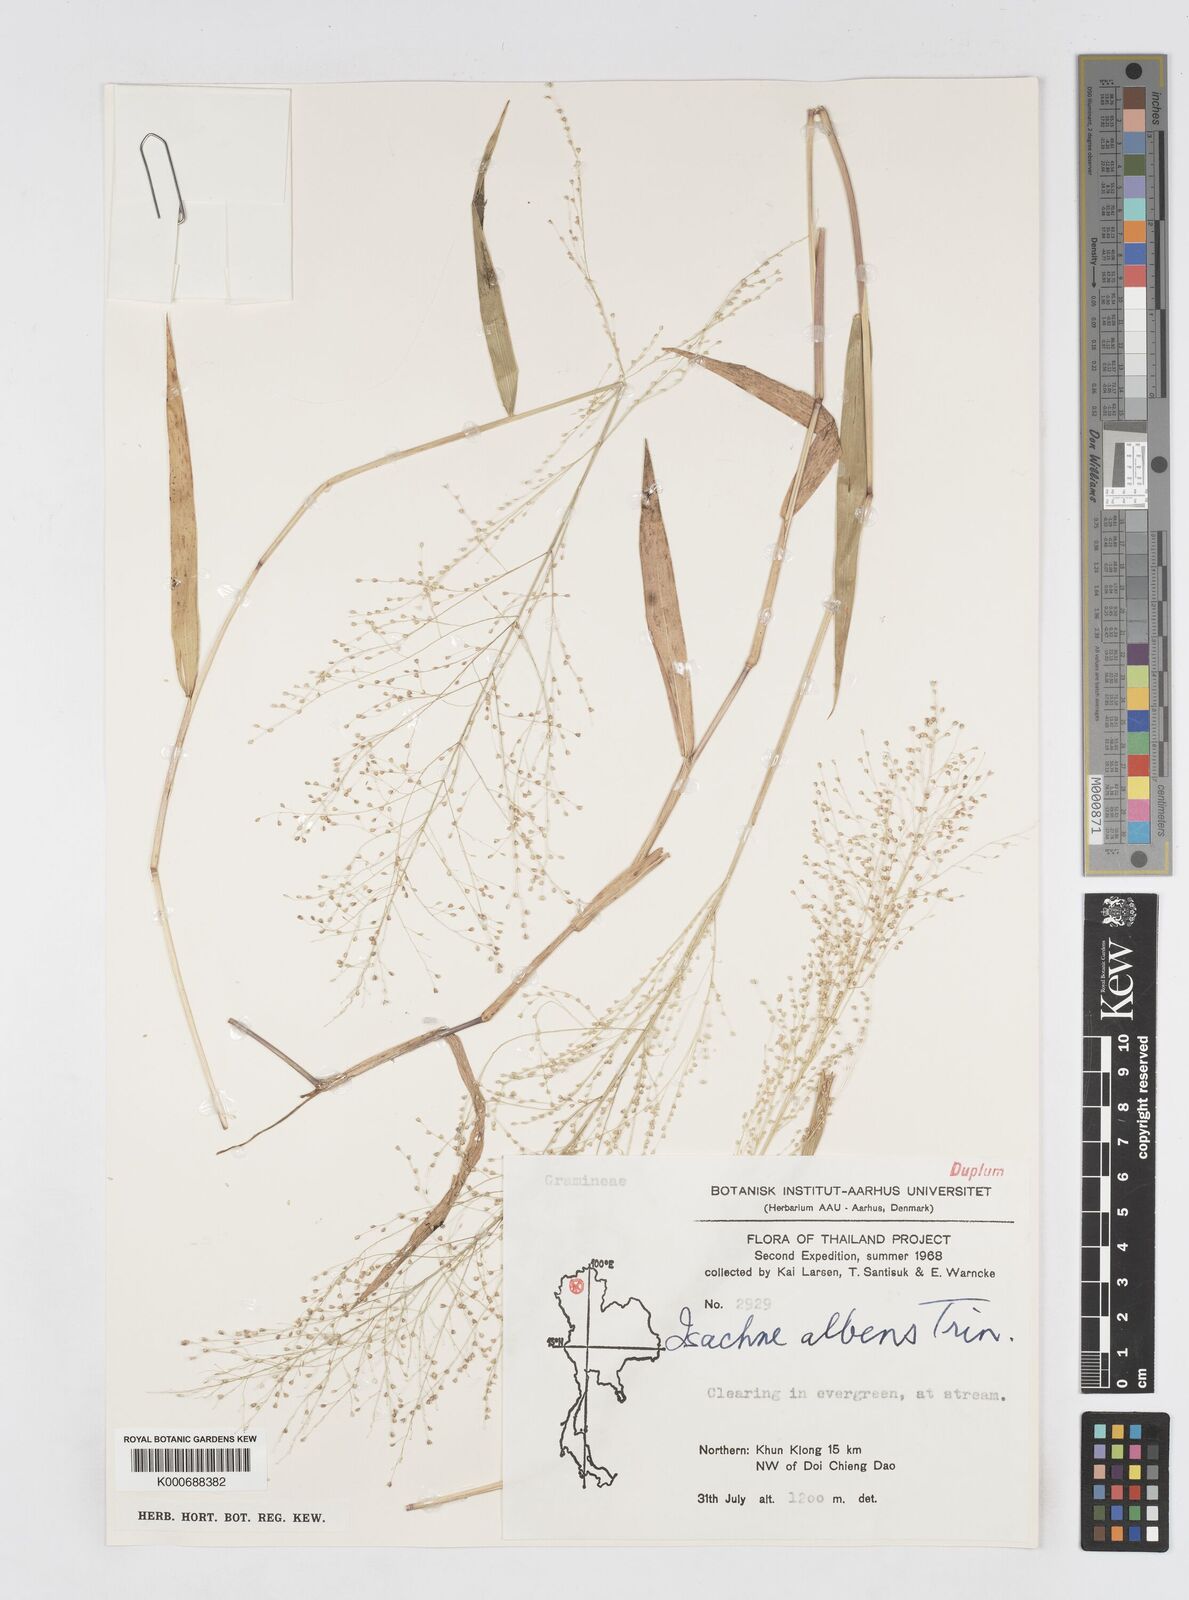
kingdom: Plantae
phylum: Tracheophyta
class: Liliopsida
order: Poales
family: Poaceae
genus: Isachne
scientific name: Isachne albens
